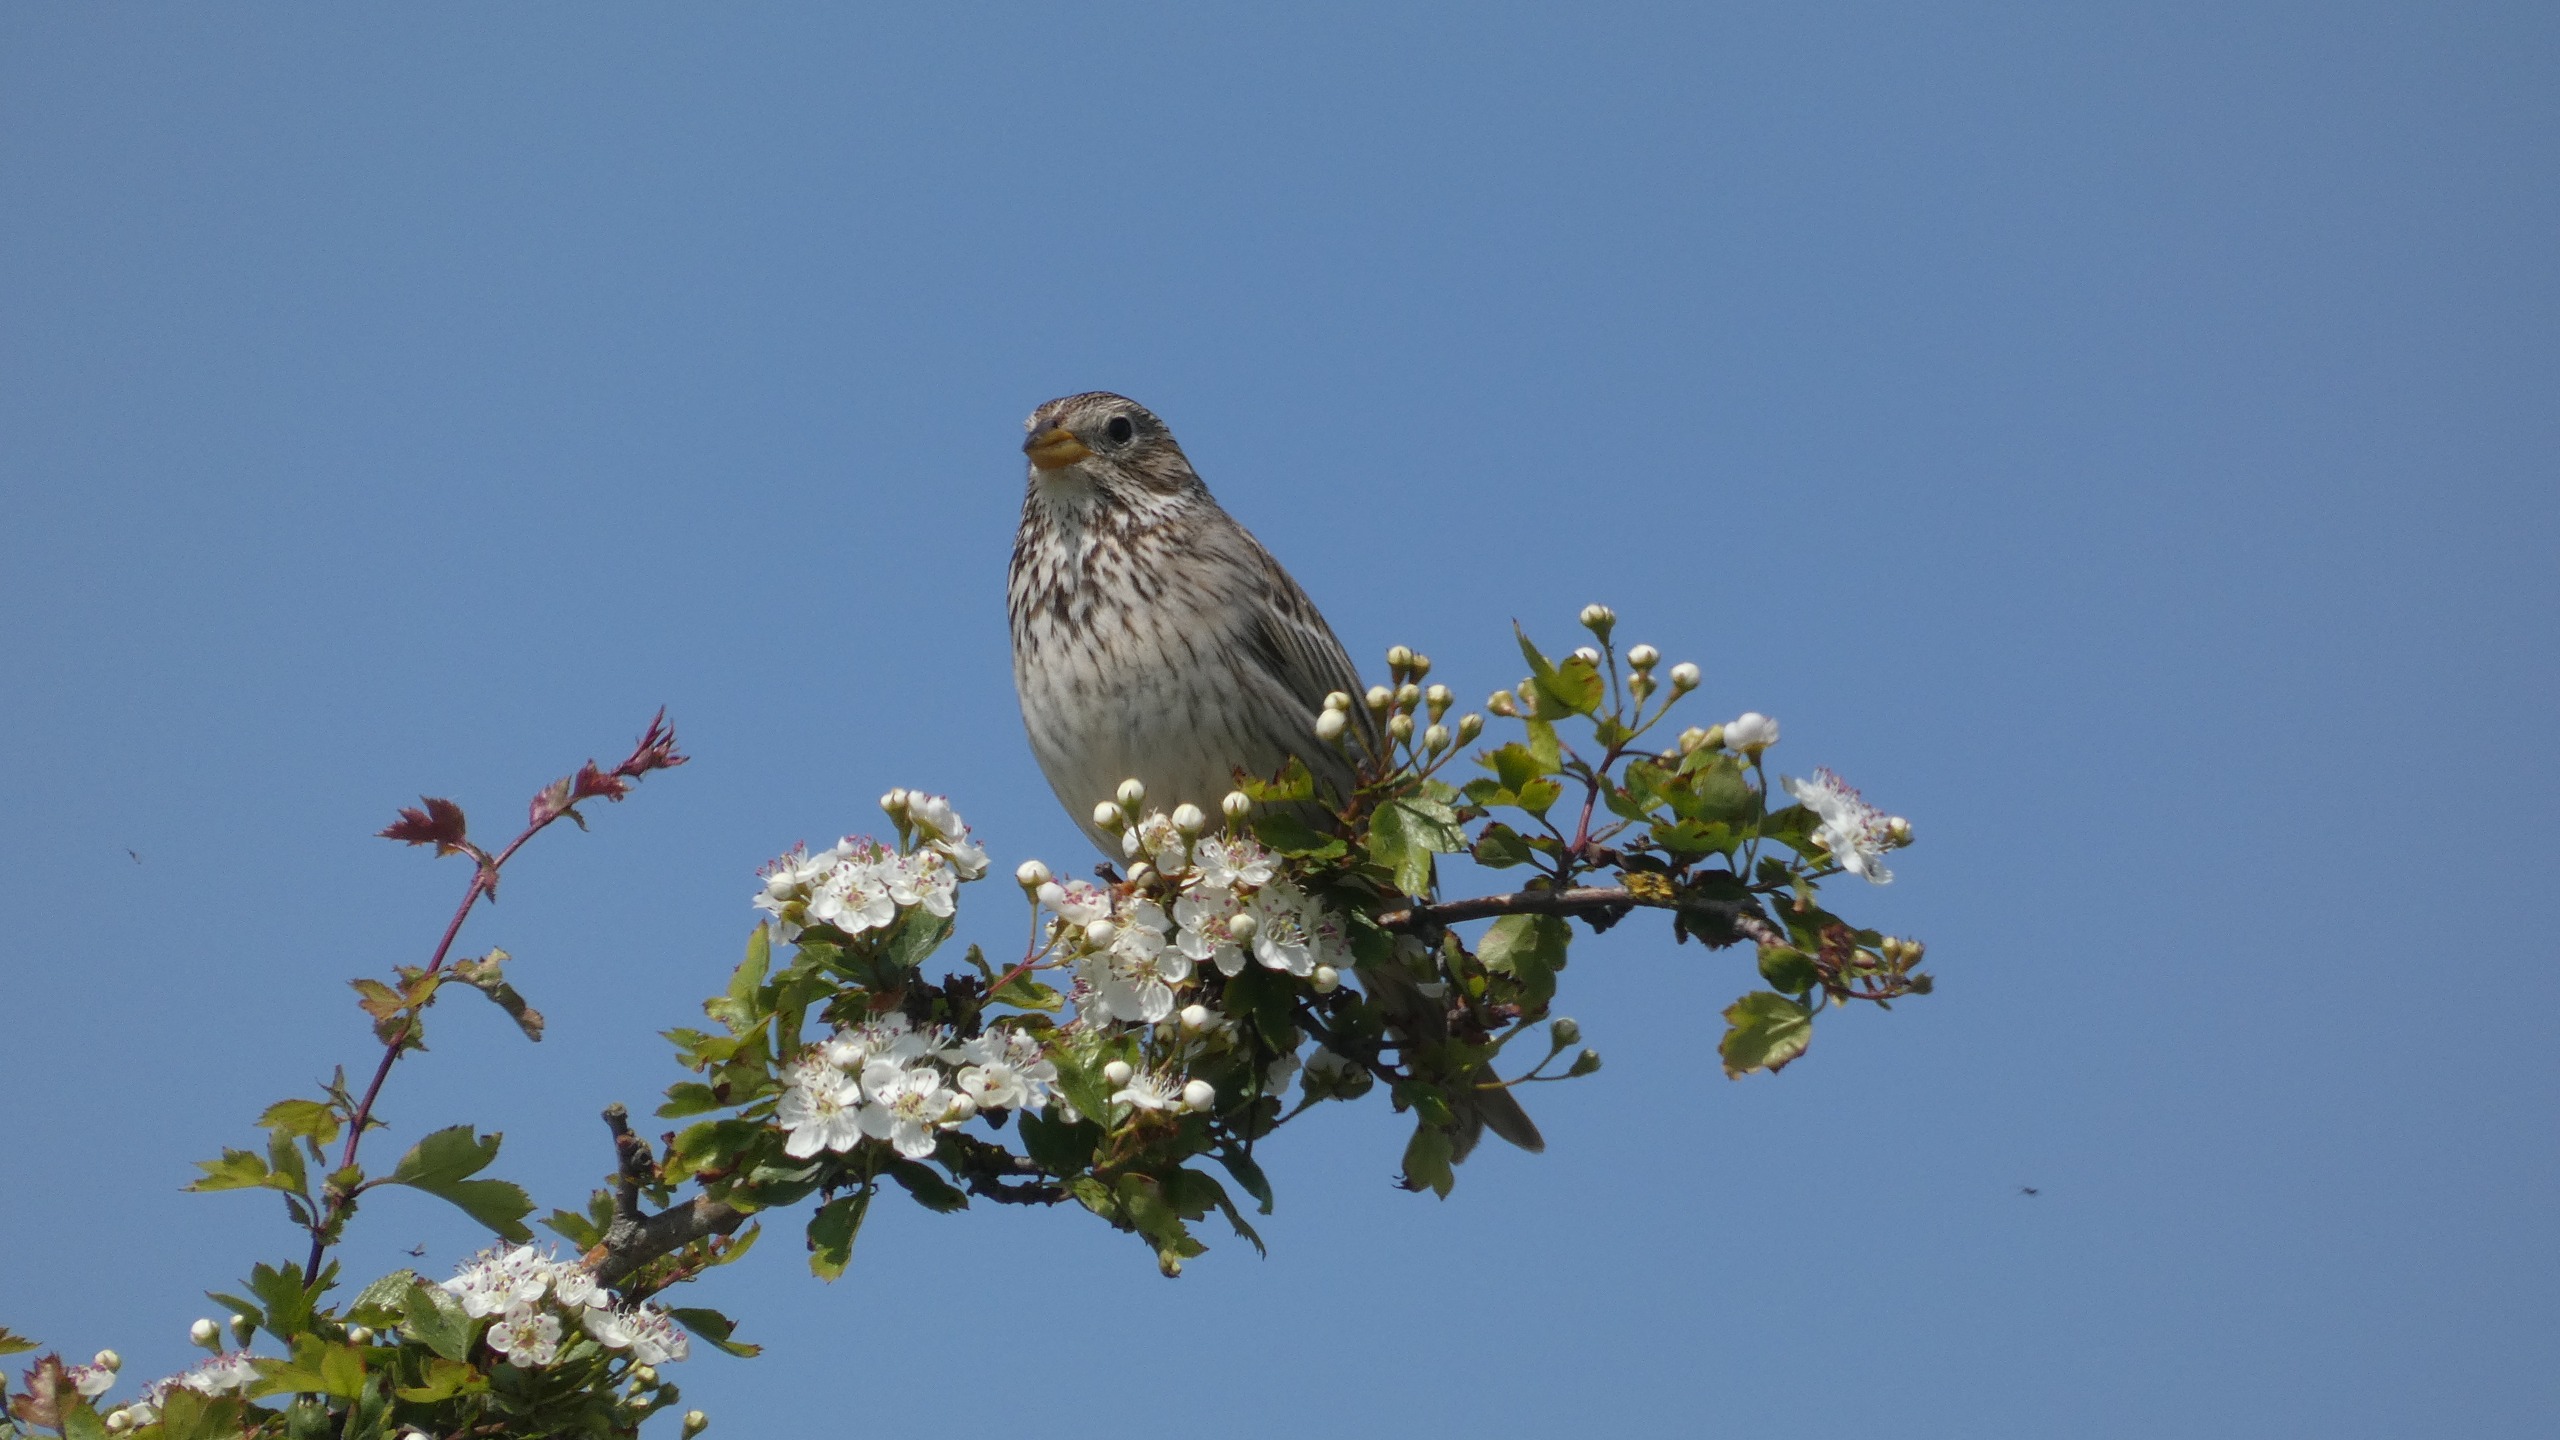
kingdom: Animalia
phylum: Chordata
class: Aves
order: Passeriformes
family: Emberizidae
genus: Emberiza
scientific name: Emberiza calandra
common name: Bomlærke
